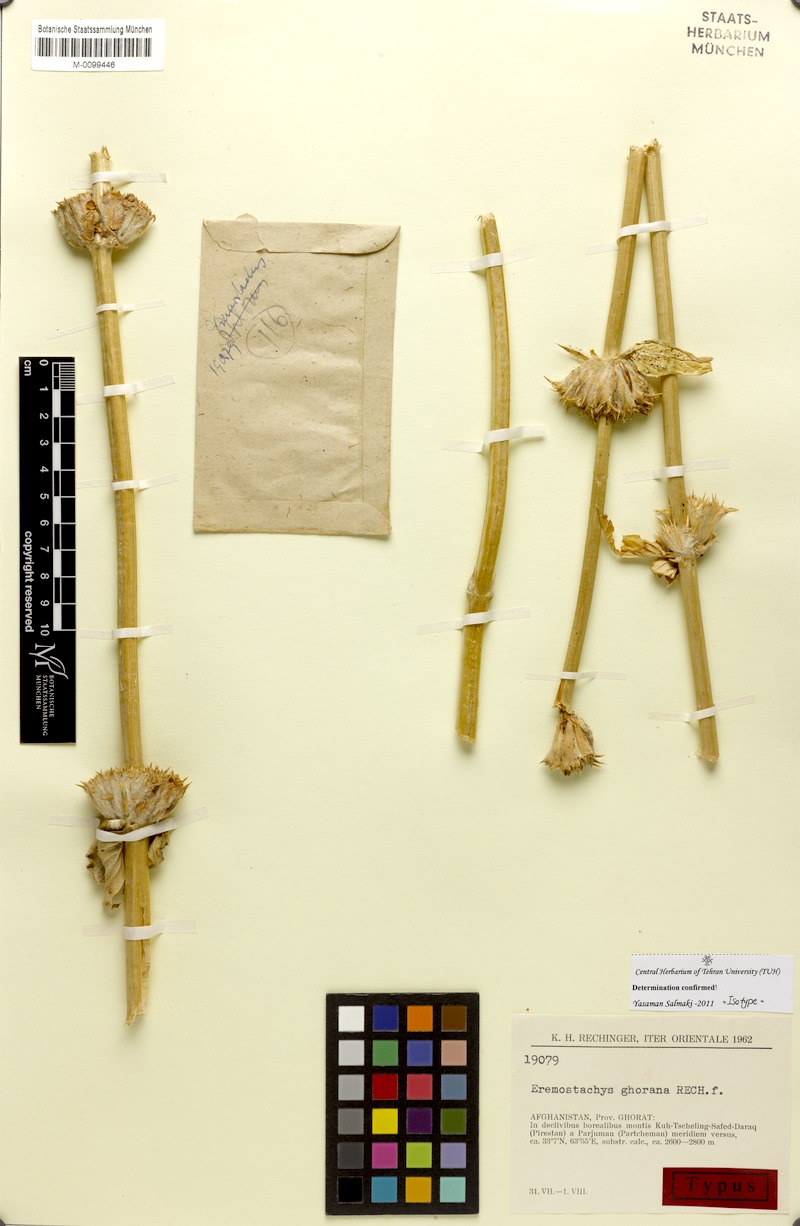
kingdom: Plantae
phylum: Tracheophyta
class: Magnoliopsida
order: Lamiales
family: Lamiaceae
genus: Phlomoides
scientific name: Phlomoides ghorana
